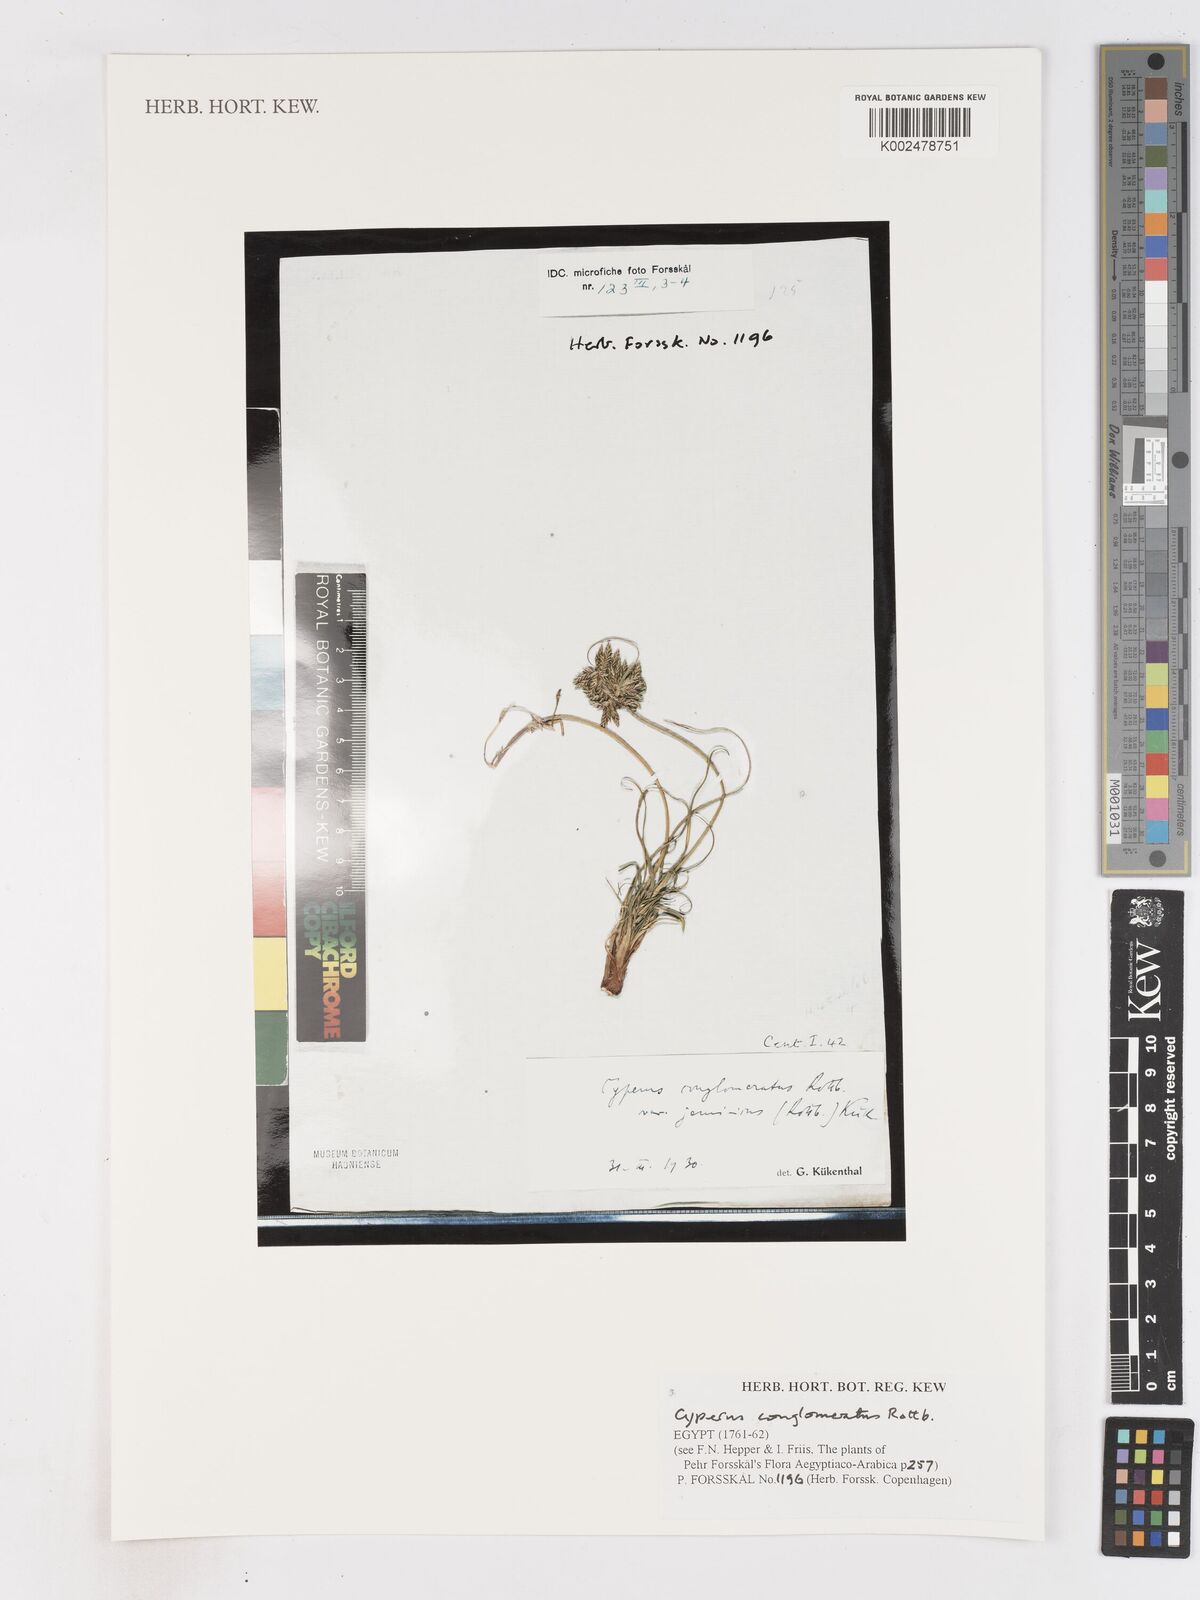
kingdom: Plantae
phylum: Tracheophyta
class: Liliopsida
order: Poales
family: Cyperaceae
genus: Cyperus
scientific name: Cyperus conglomeratus
